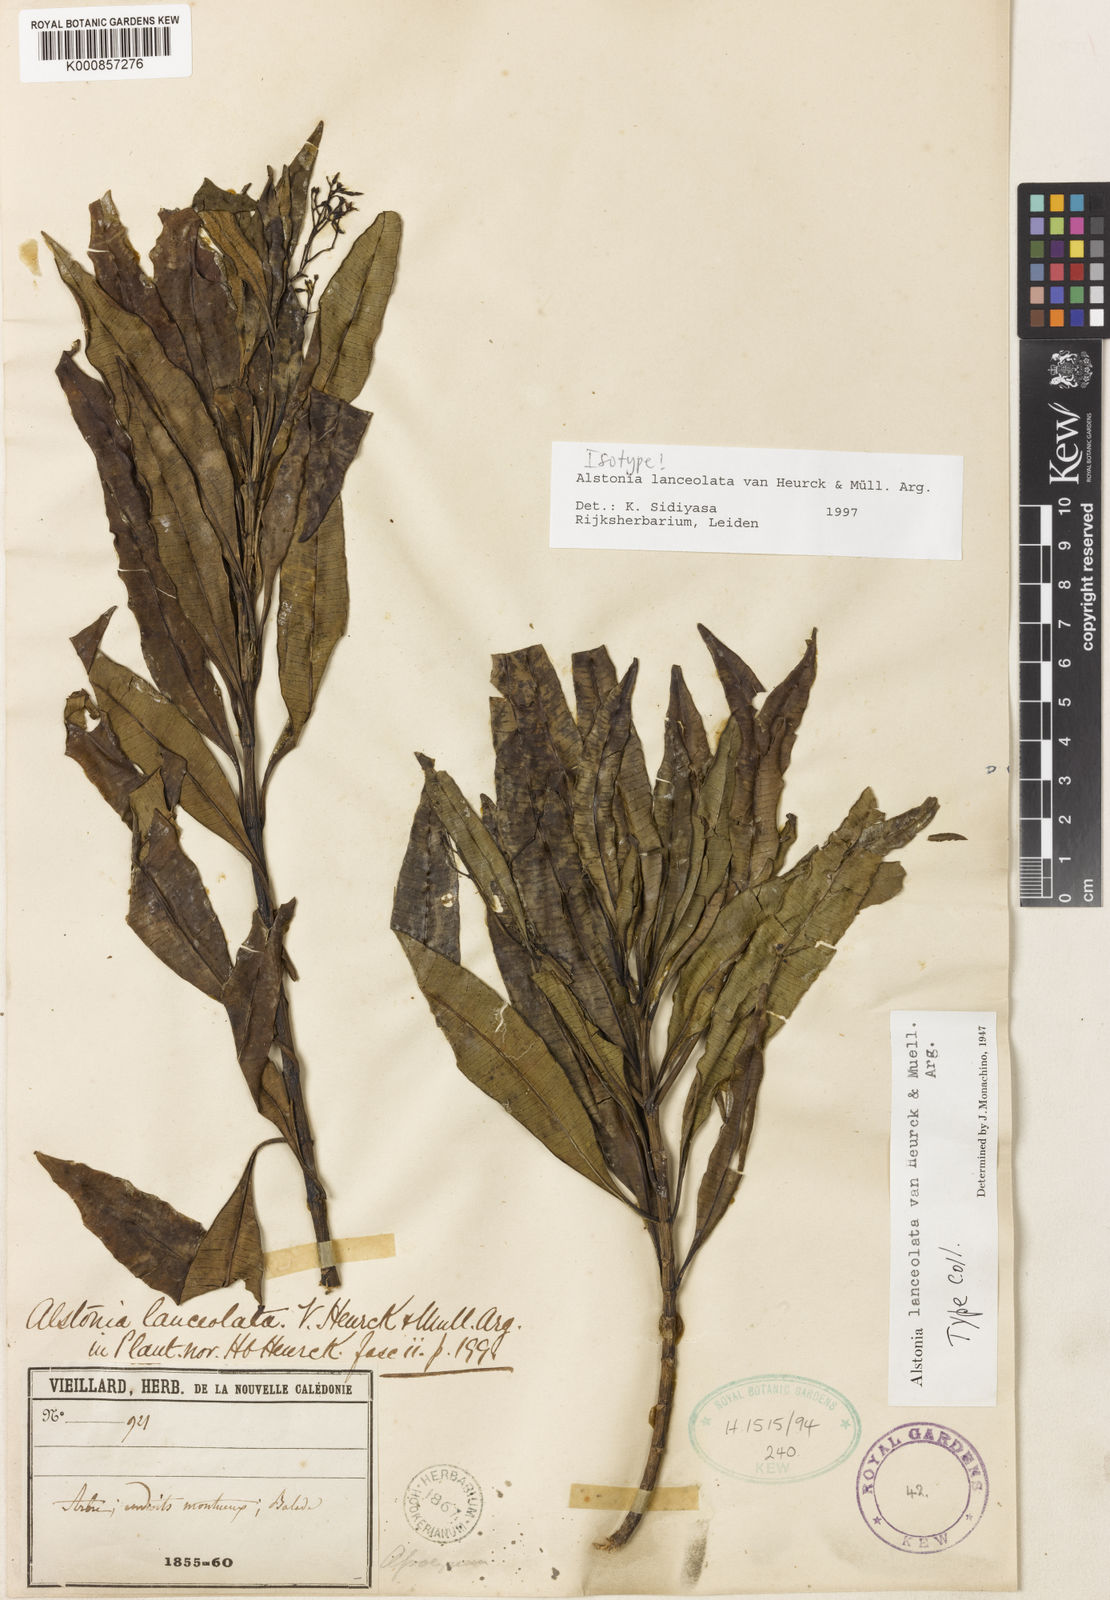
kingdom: Plantae
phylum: Tracheophyta
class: Magnoliopsida
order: Gentianales
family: Apocynaceae
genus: Alstonia
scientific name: Alstonia
